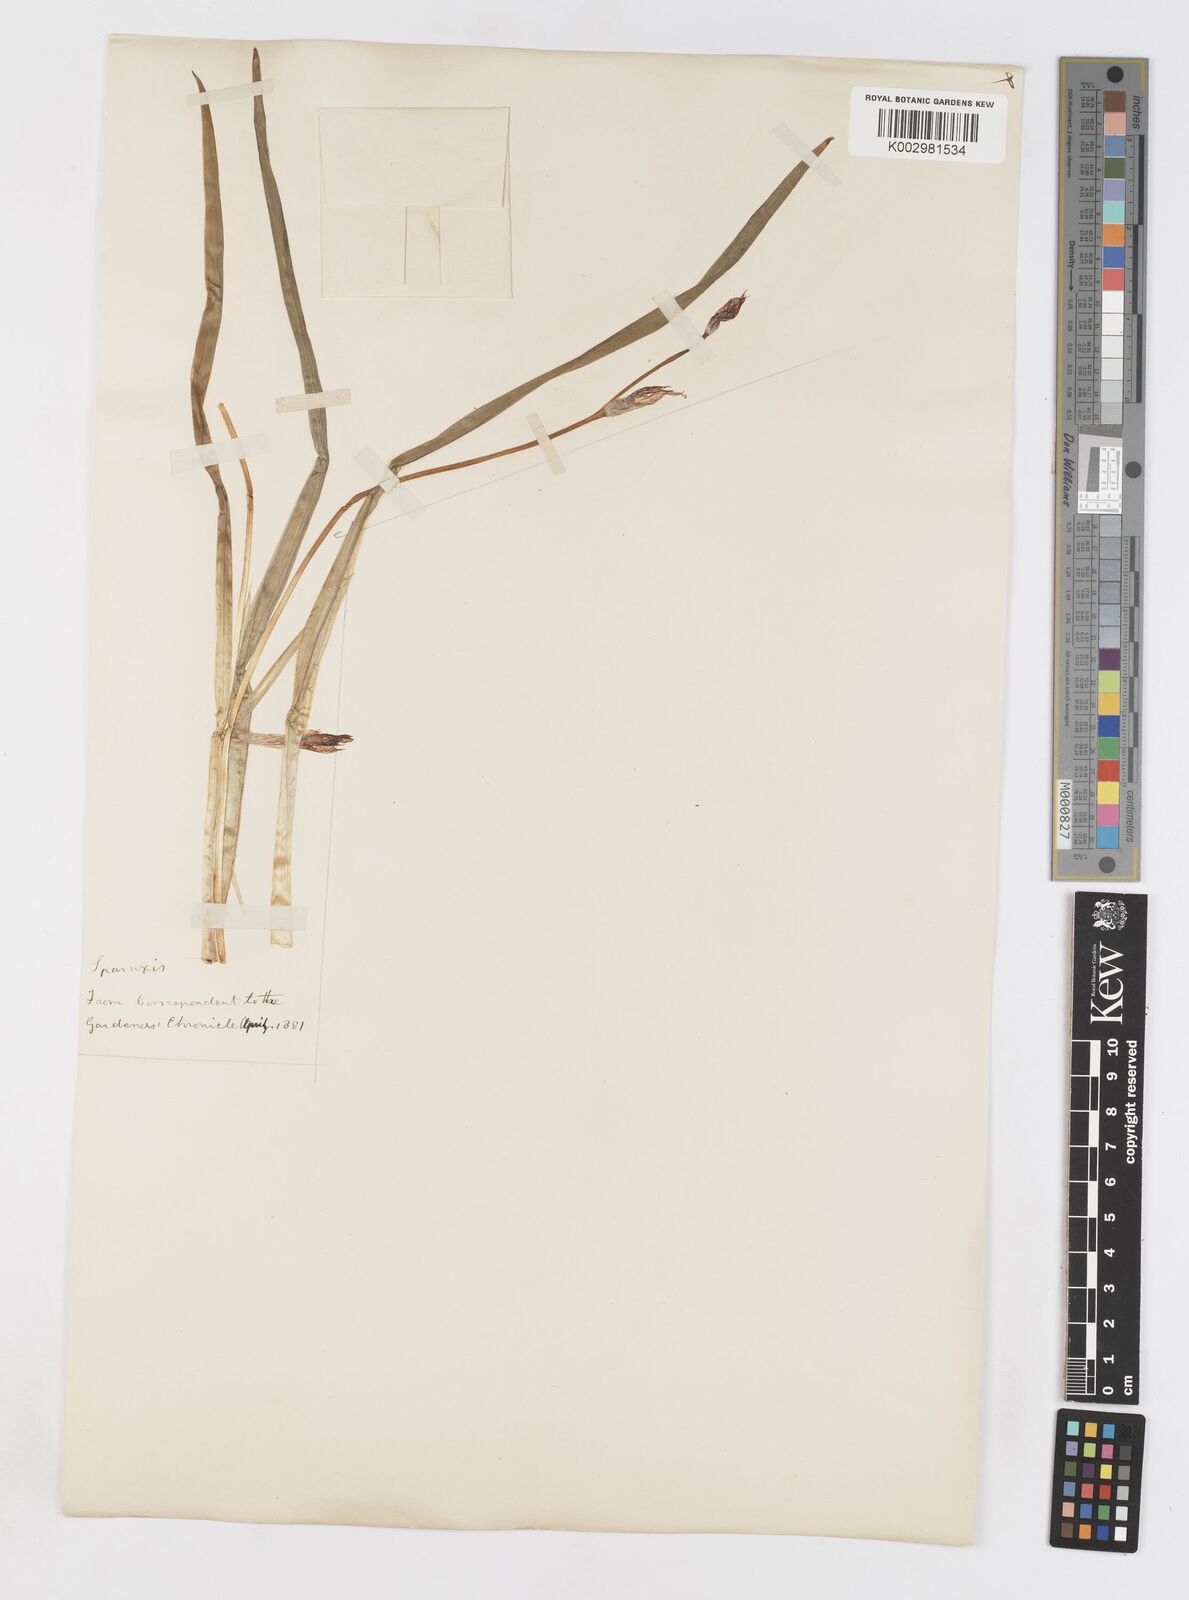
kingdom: Plantae
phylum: Tracheophyta
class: Liliopsida
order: Asparagales
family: Iridaceae
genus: Sparaxis
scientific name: Sparaxis
